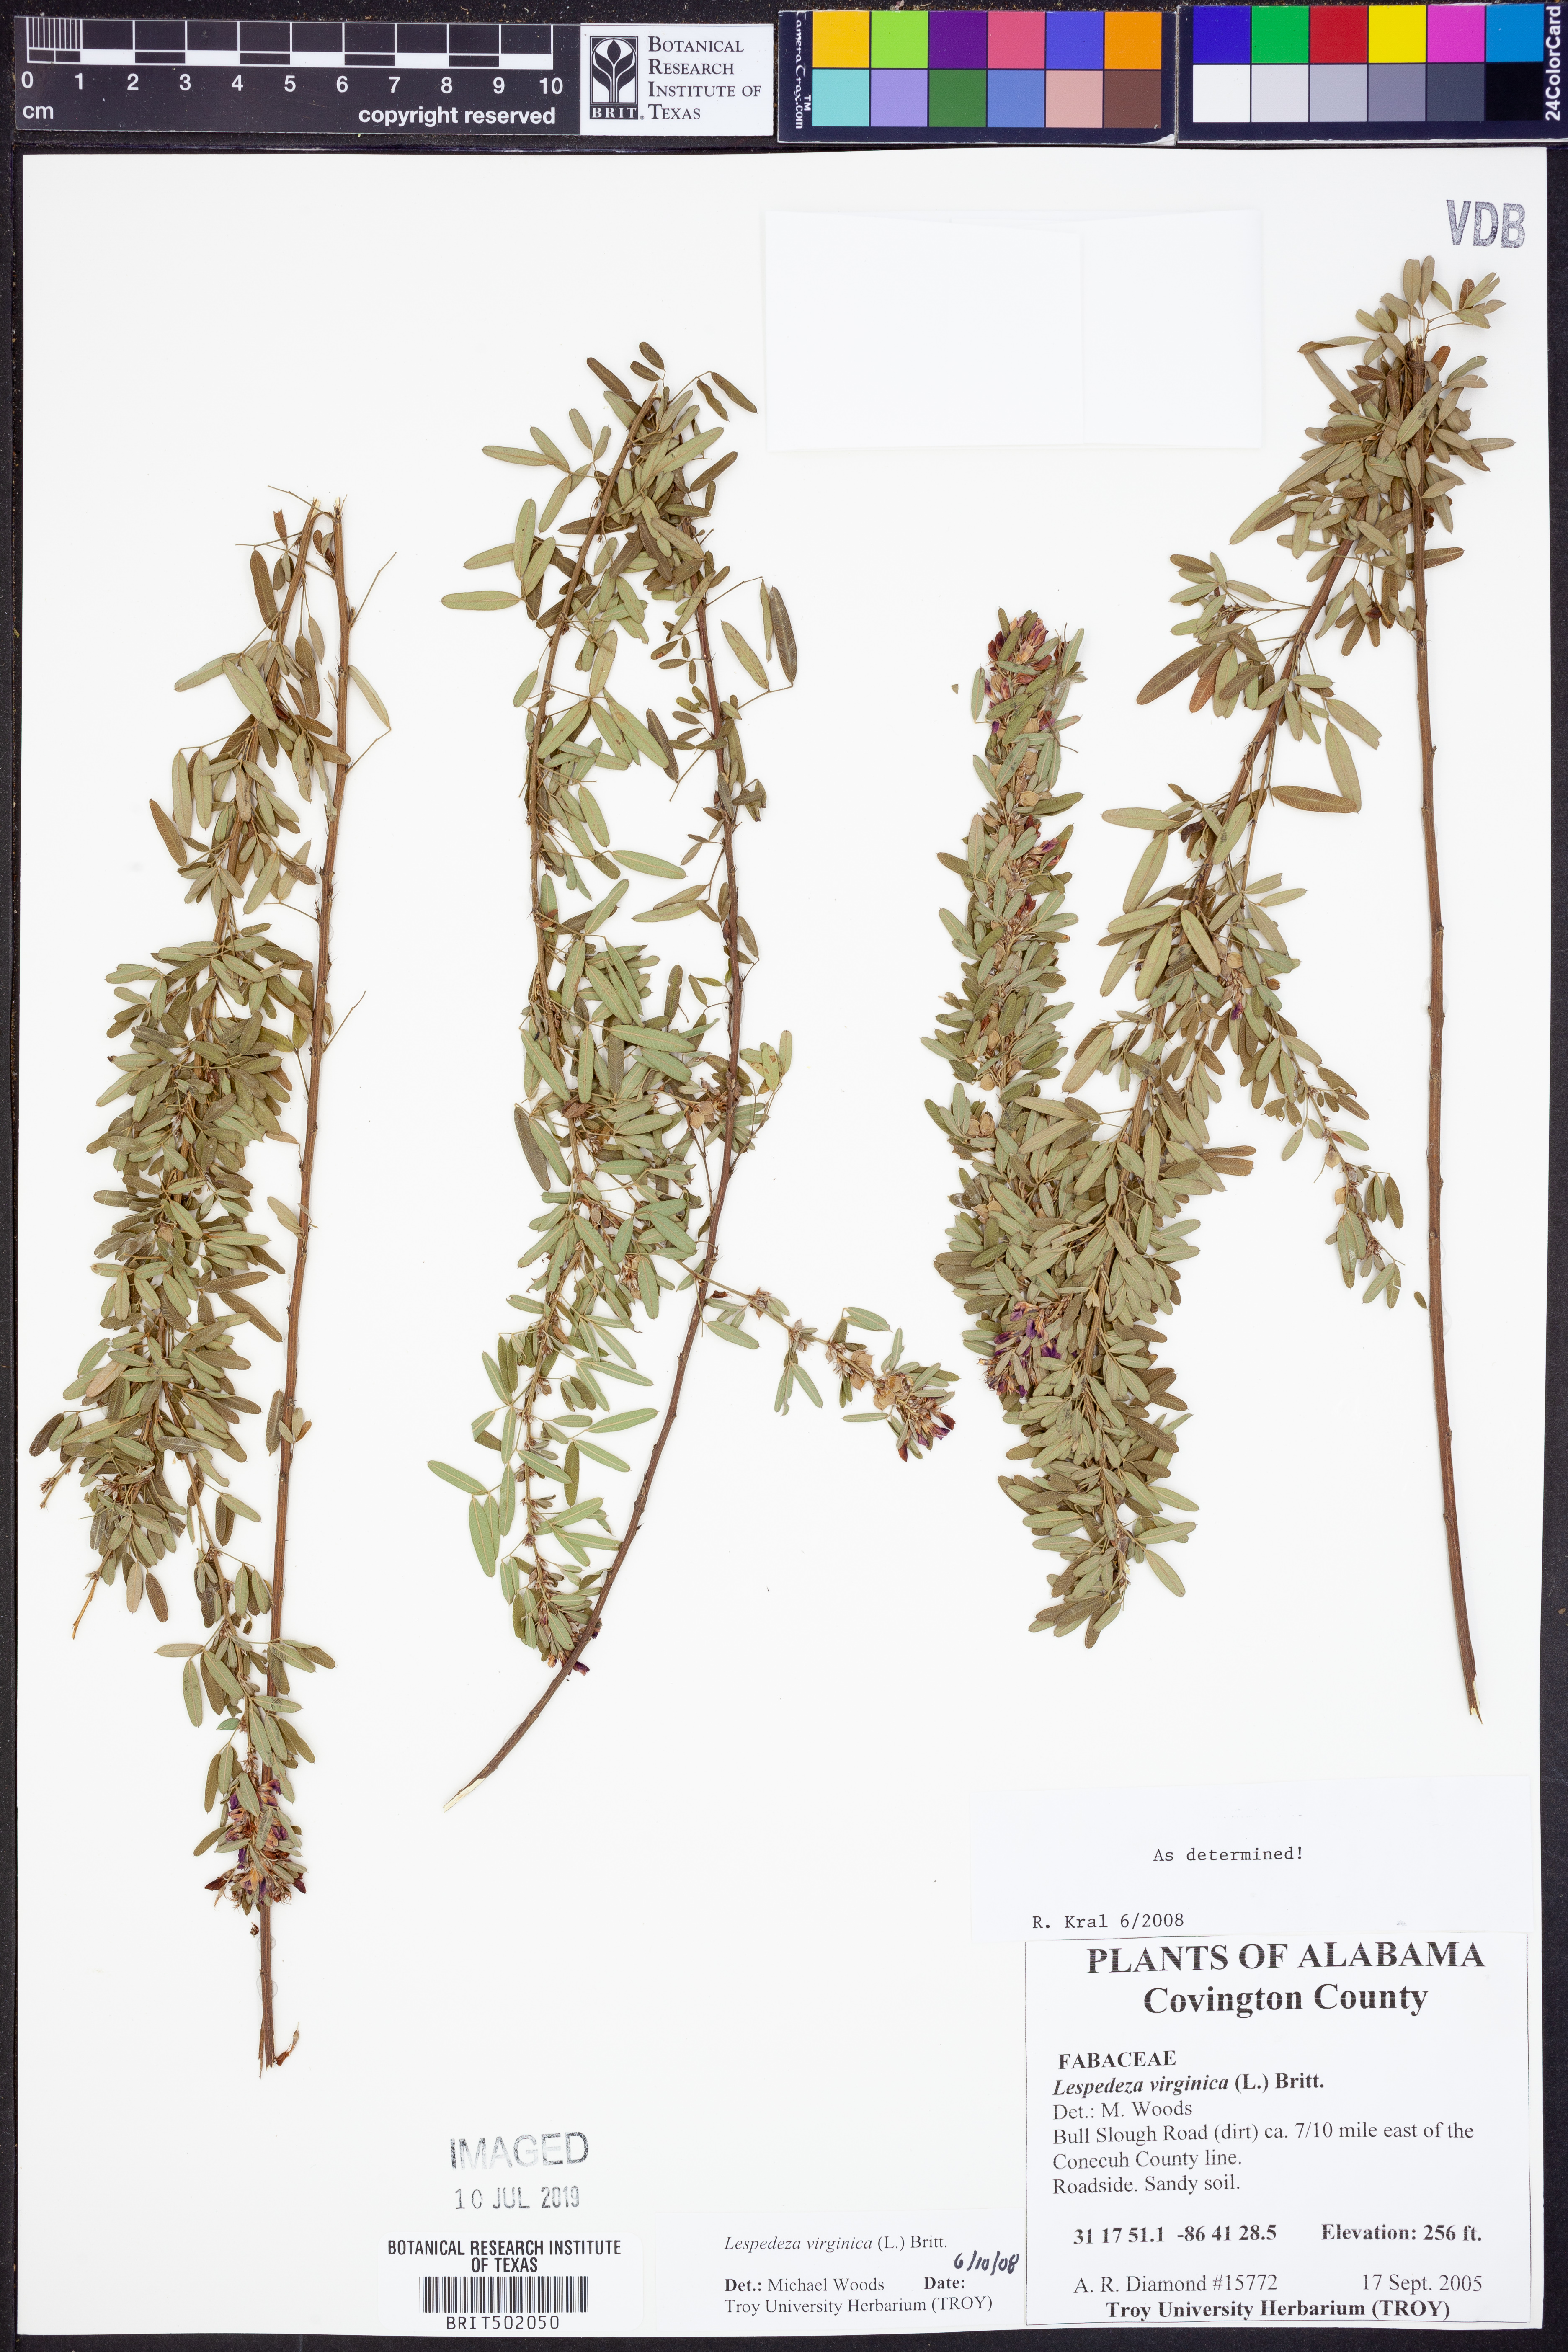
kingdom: Plantae
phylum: Tracheophyta
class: Magnoliopsida
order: Fabales
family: Fabaceae
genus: Lespedeza
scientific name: Lespedeza virginica
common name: Slender bush-clover
